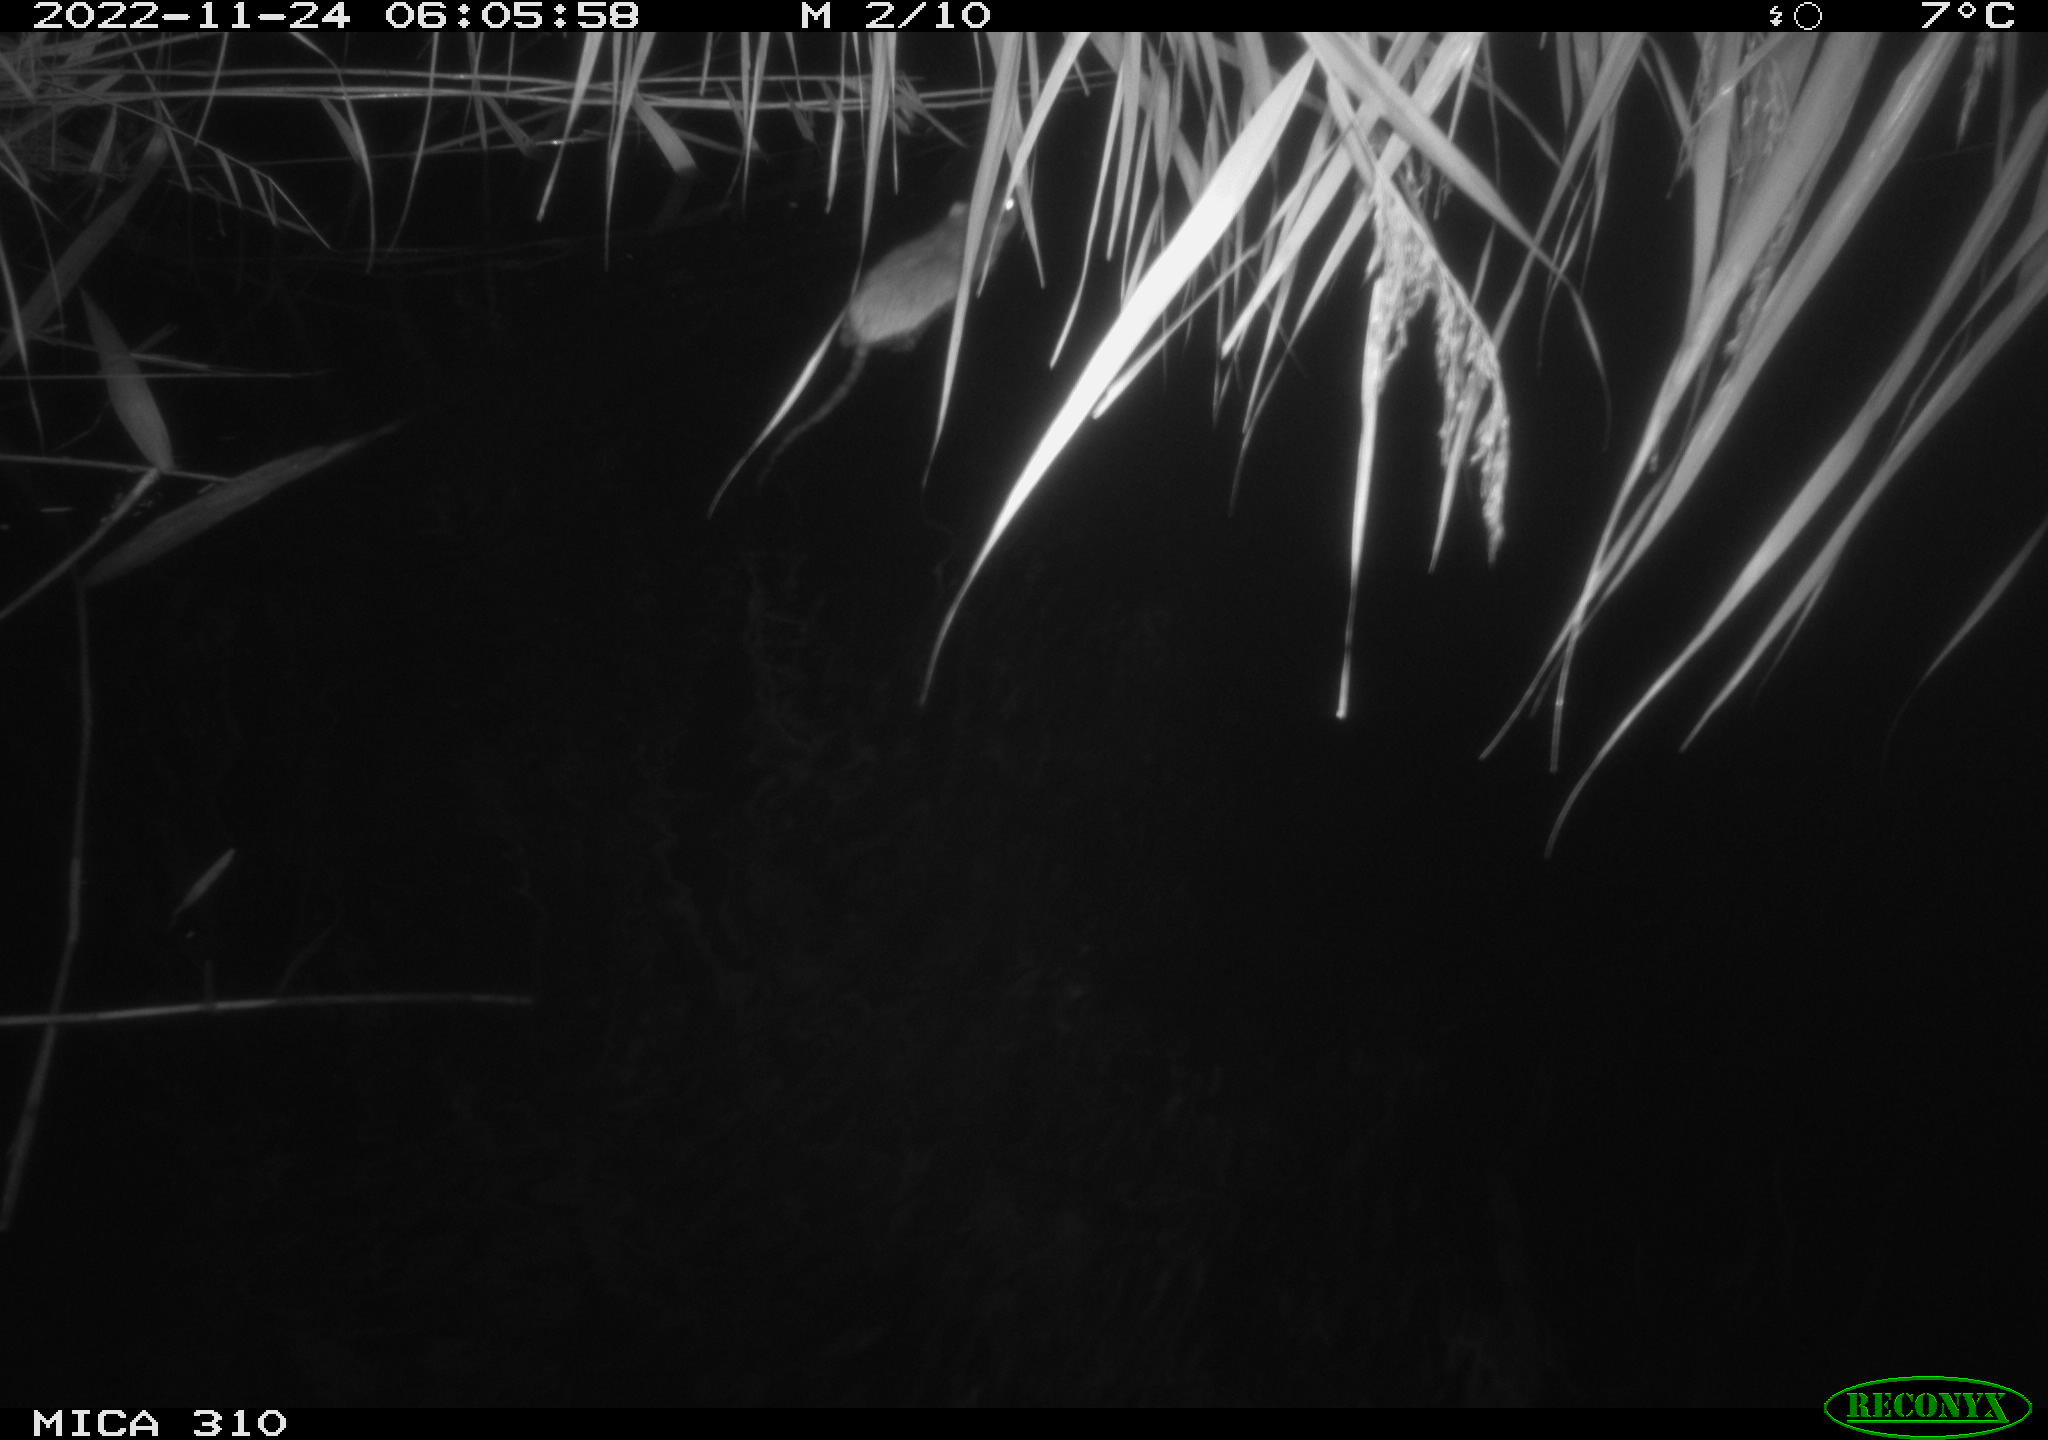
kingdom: Animalia
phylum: Chordata
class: Mammalia
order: Rodentia
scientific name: Rodentia
